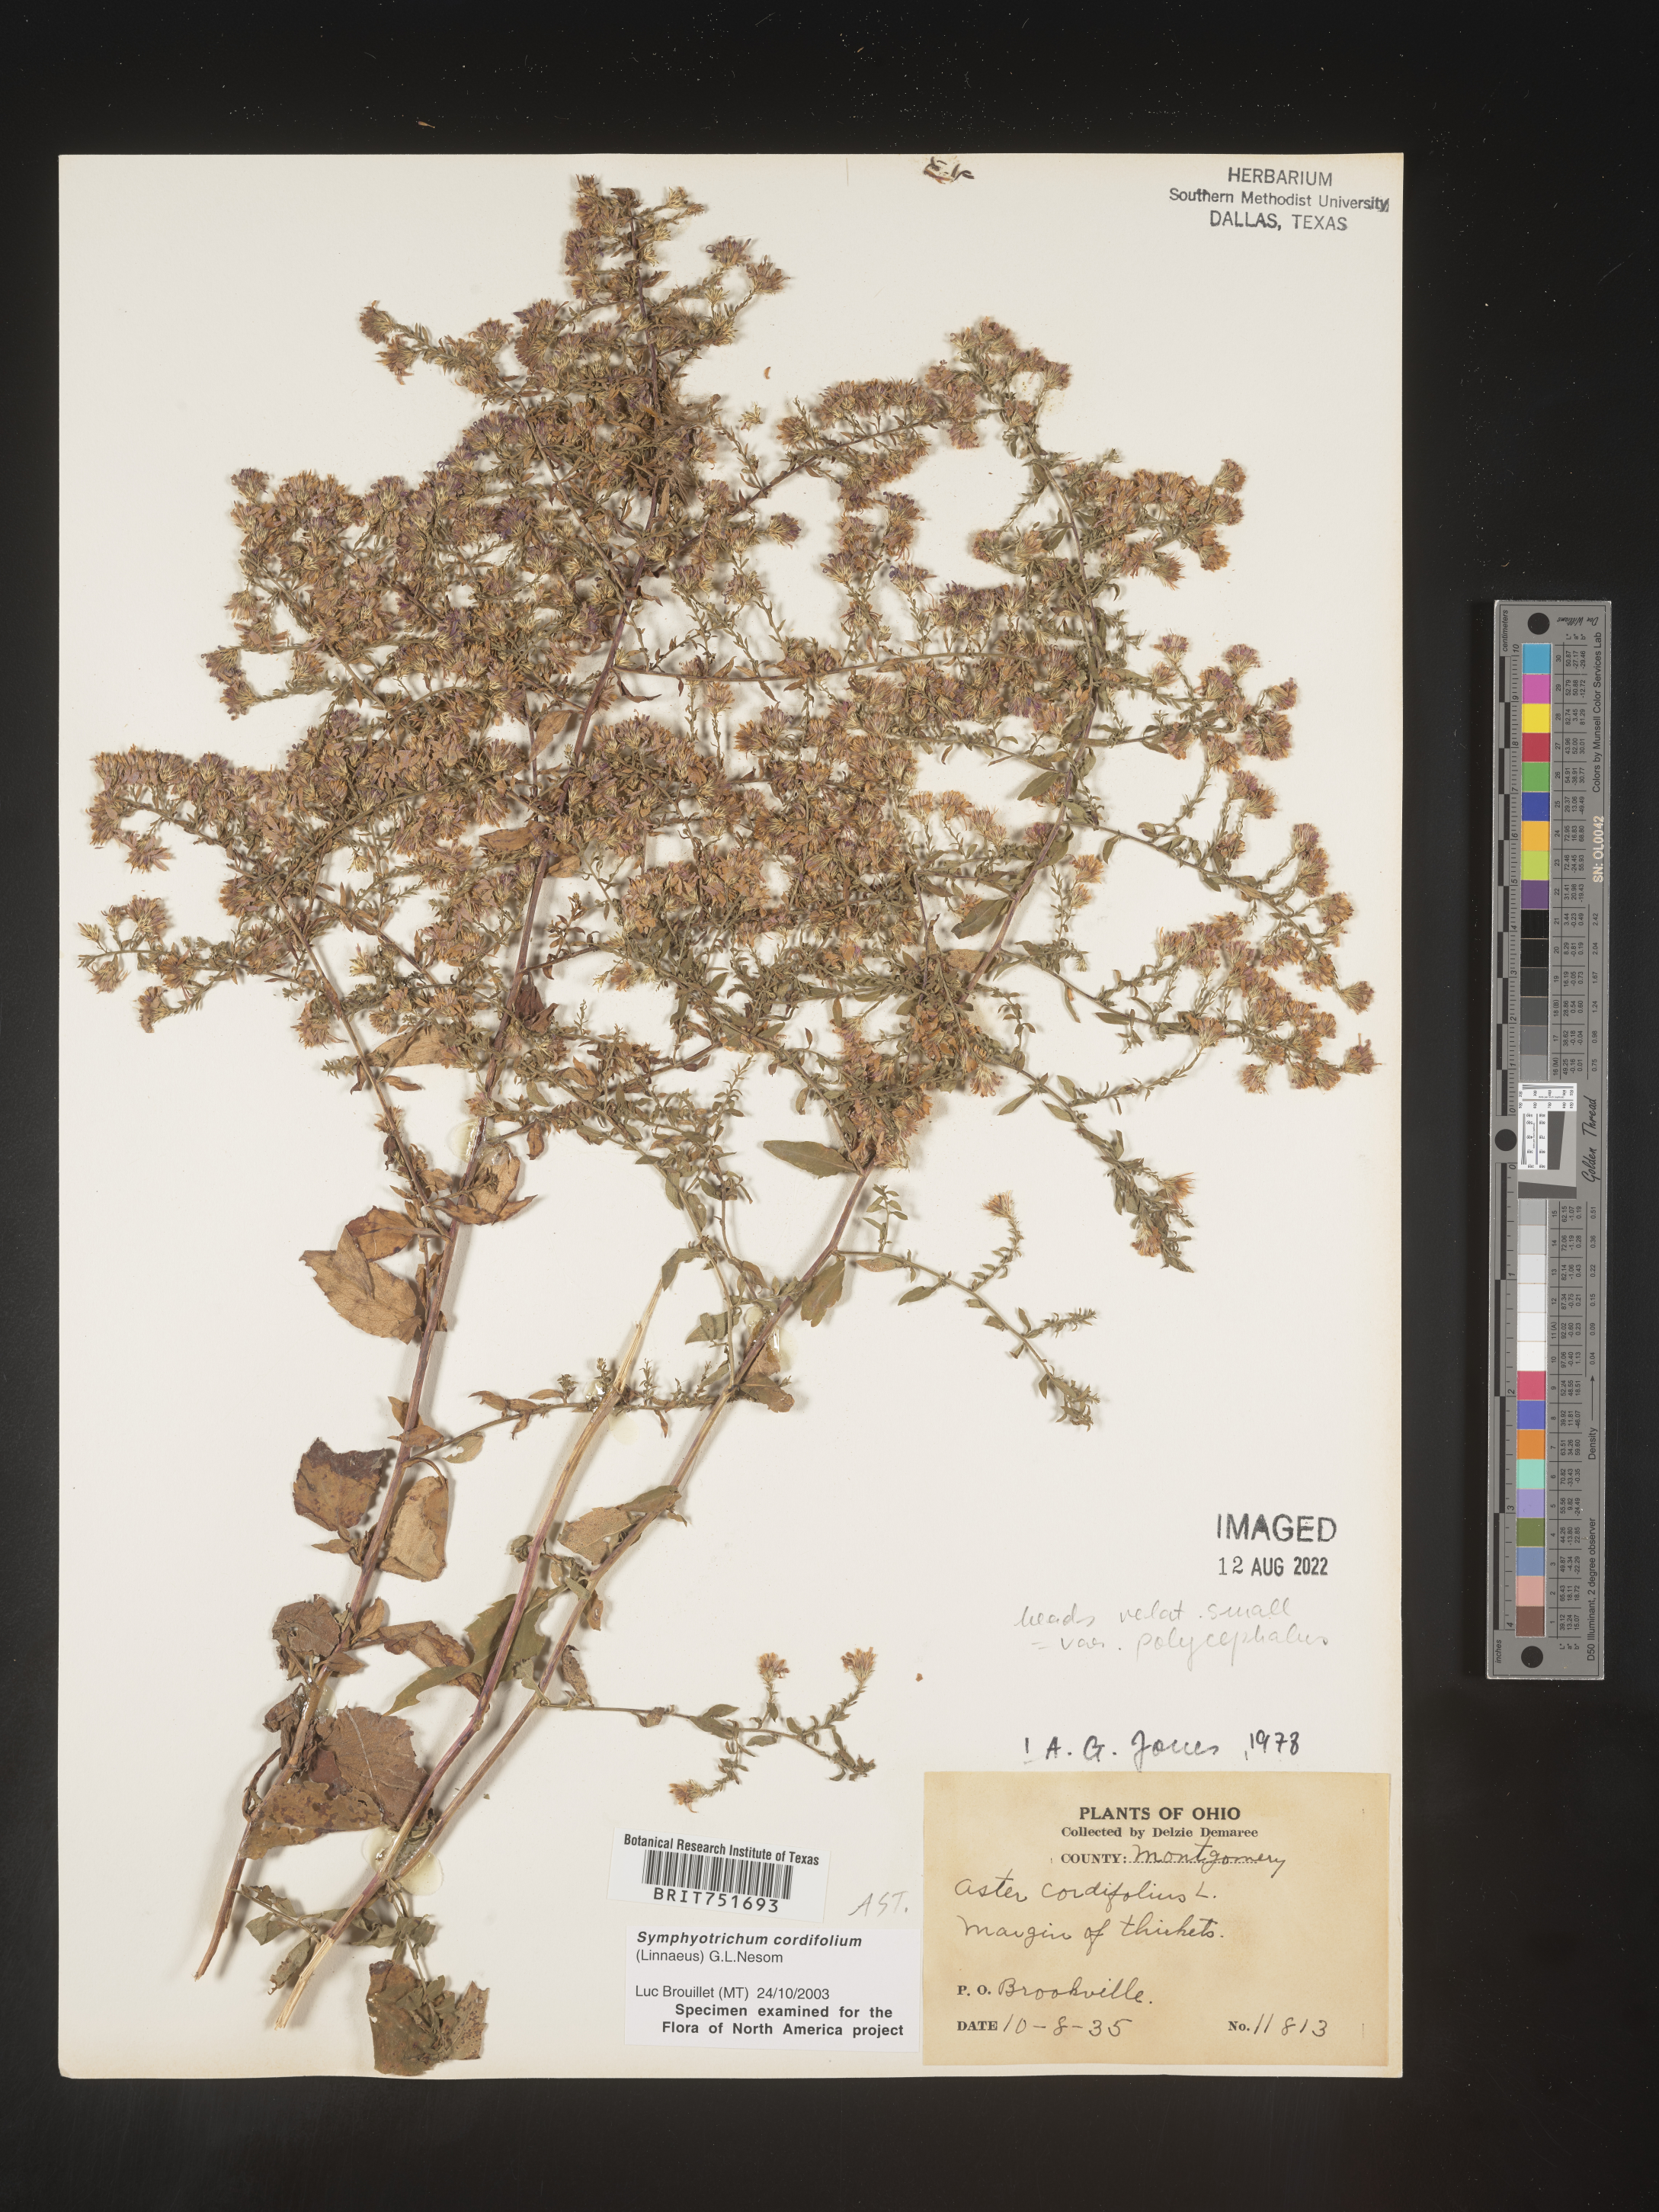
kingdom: Plantae
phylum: Tracheophyta
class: Magnoliopsida
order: Asterales
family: Asteraceae
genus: Symphyotrichum
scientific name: Symphyotrichum cordifolium
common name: Beeweed
